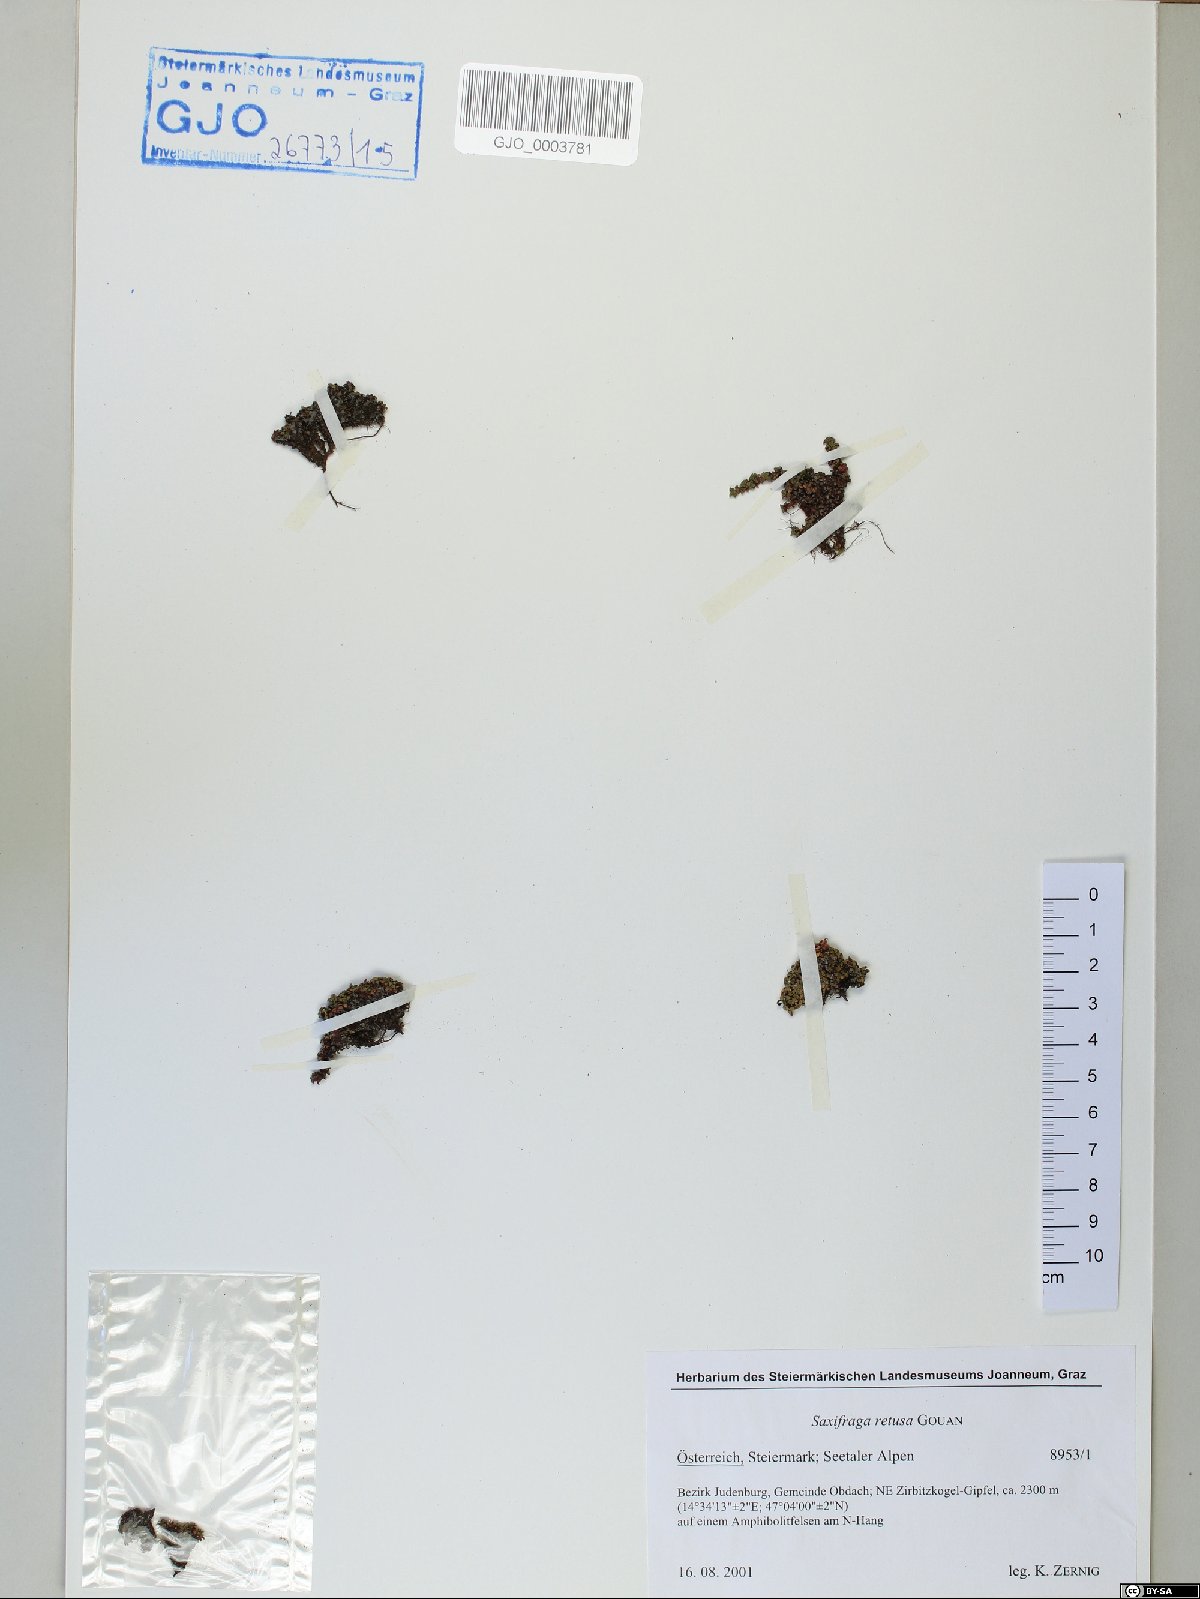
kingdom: Plantae
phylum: Tracheophyta
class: Magnoliopsida
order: Saxifragales
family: Saxifragaceae
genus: Saxifraga
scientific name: Saxifraga retusa
